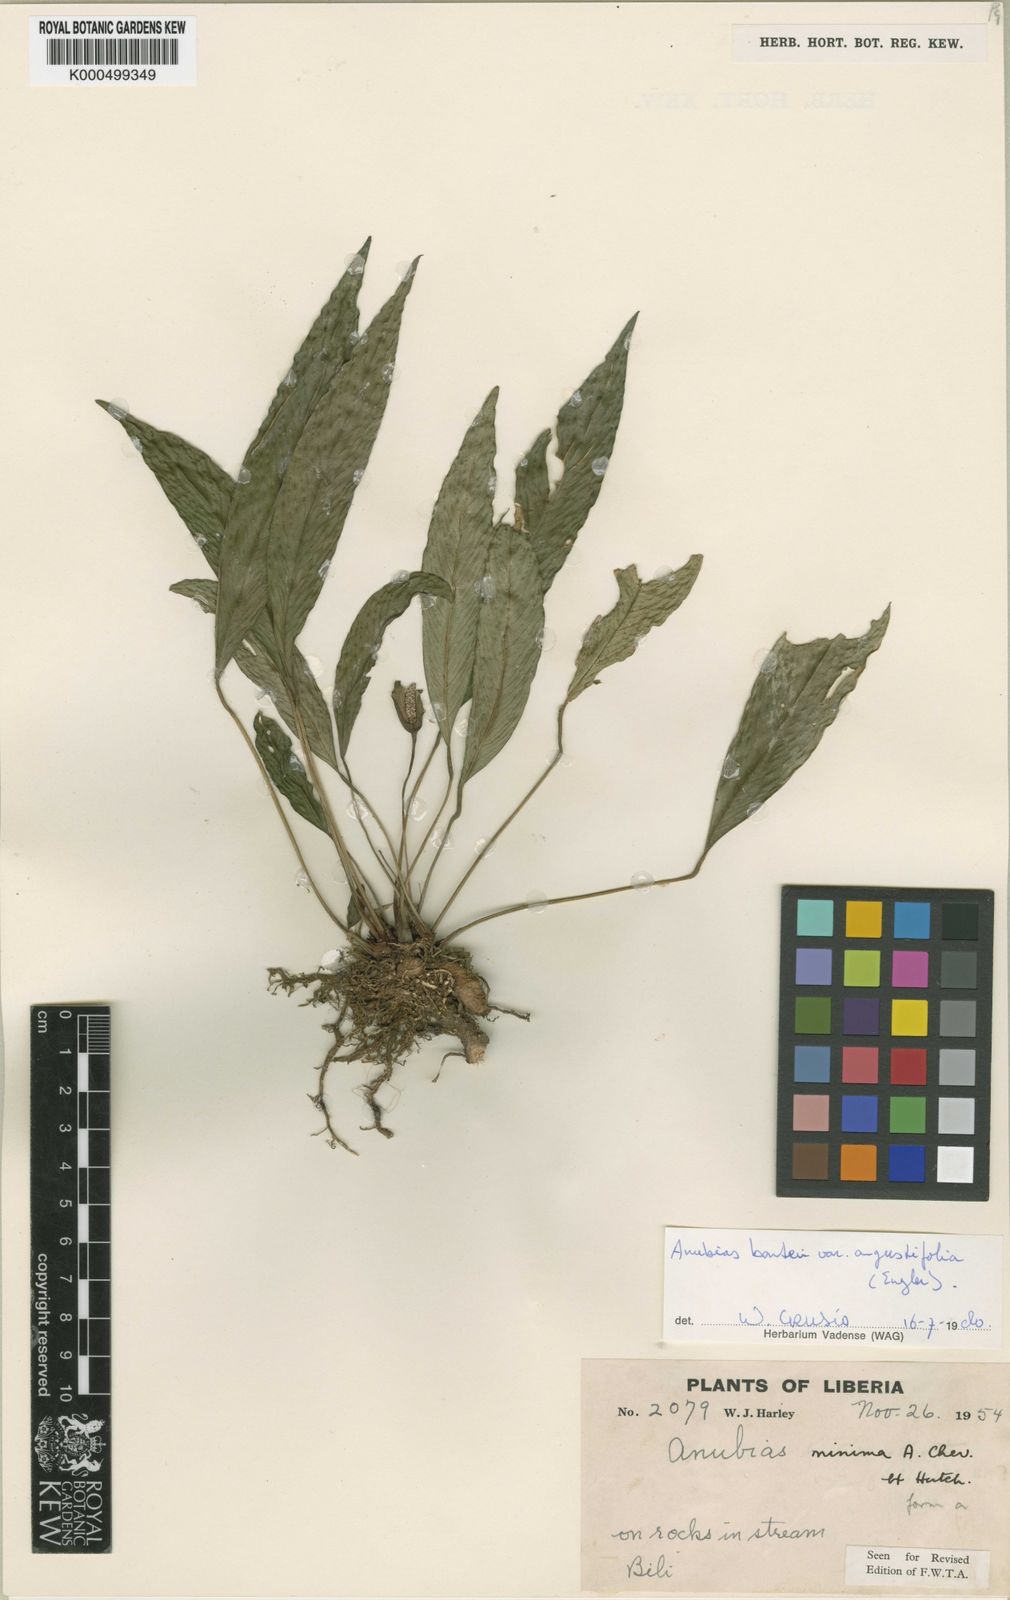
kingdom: Plantae
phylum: Tracheophyta
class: Liliopsida
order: Alismatales
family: Araceae
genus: Anubias
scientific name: Anubias barteri
